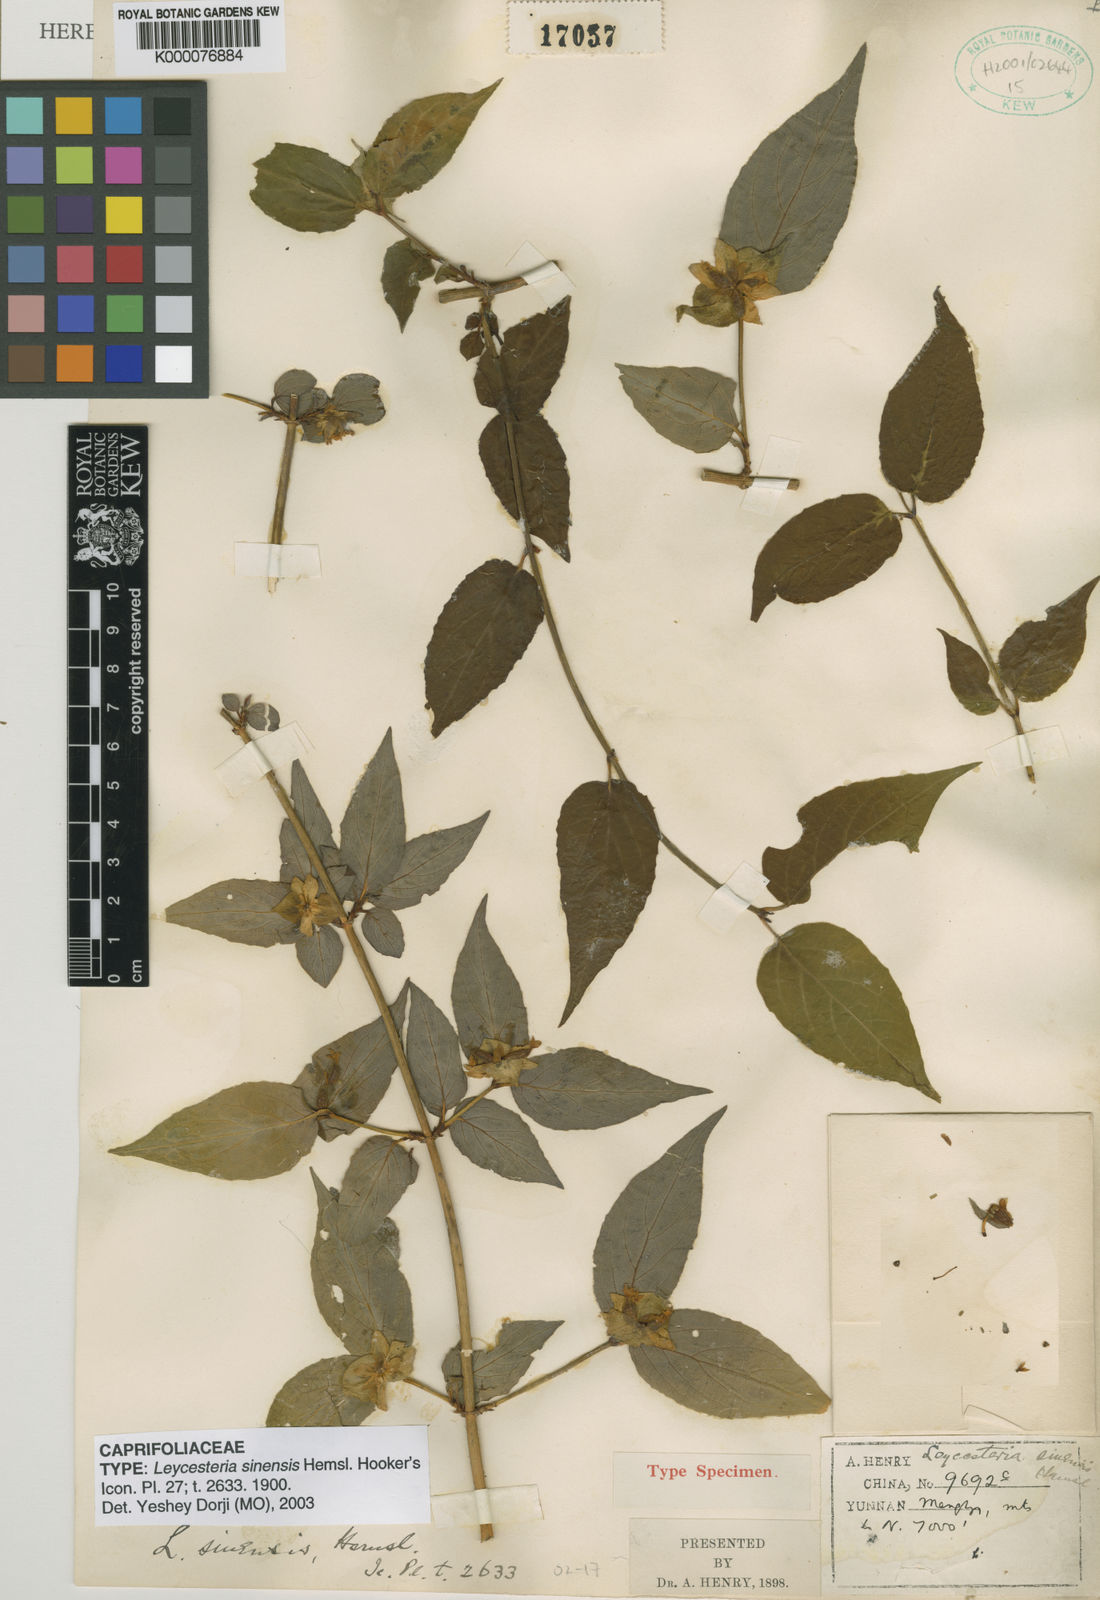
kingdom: Plantae
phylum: Tracheophyta
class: Magnoliopsida
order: Dipsacales
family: Caprifoliaceae
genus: Leycesteria
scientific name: Leycesteria formosa
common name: Himalayan honeysuckle
